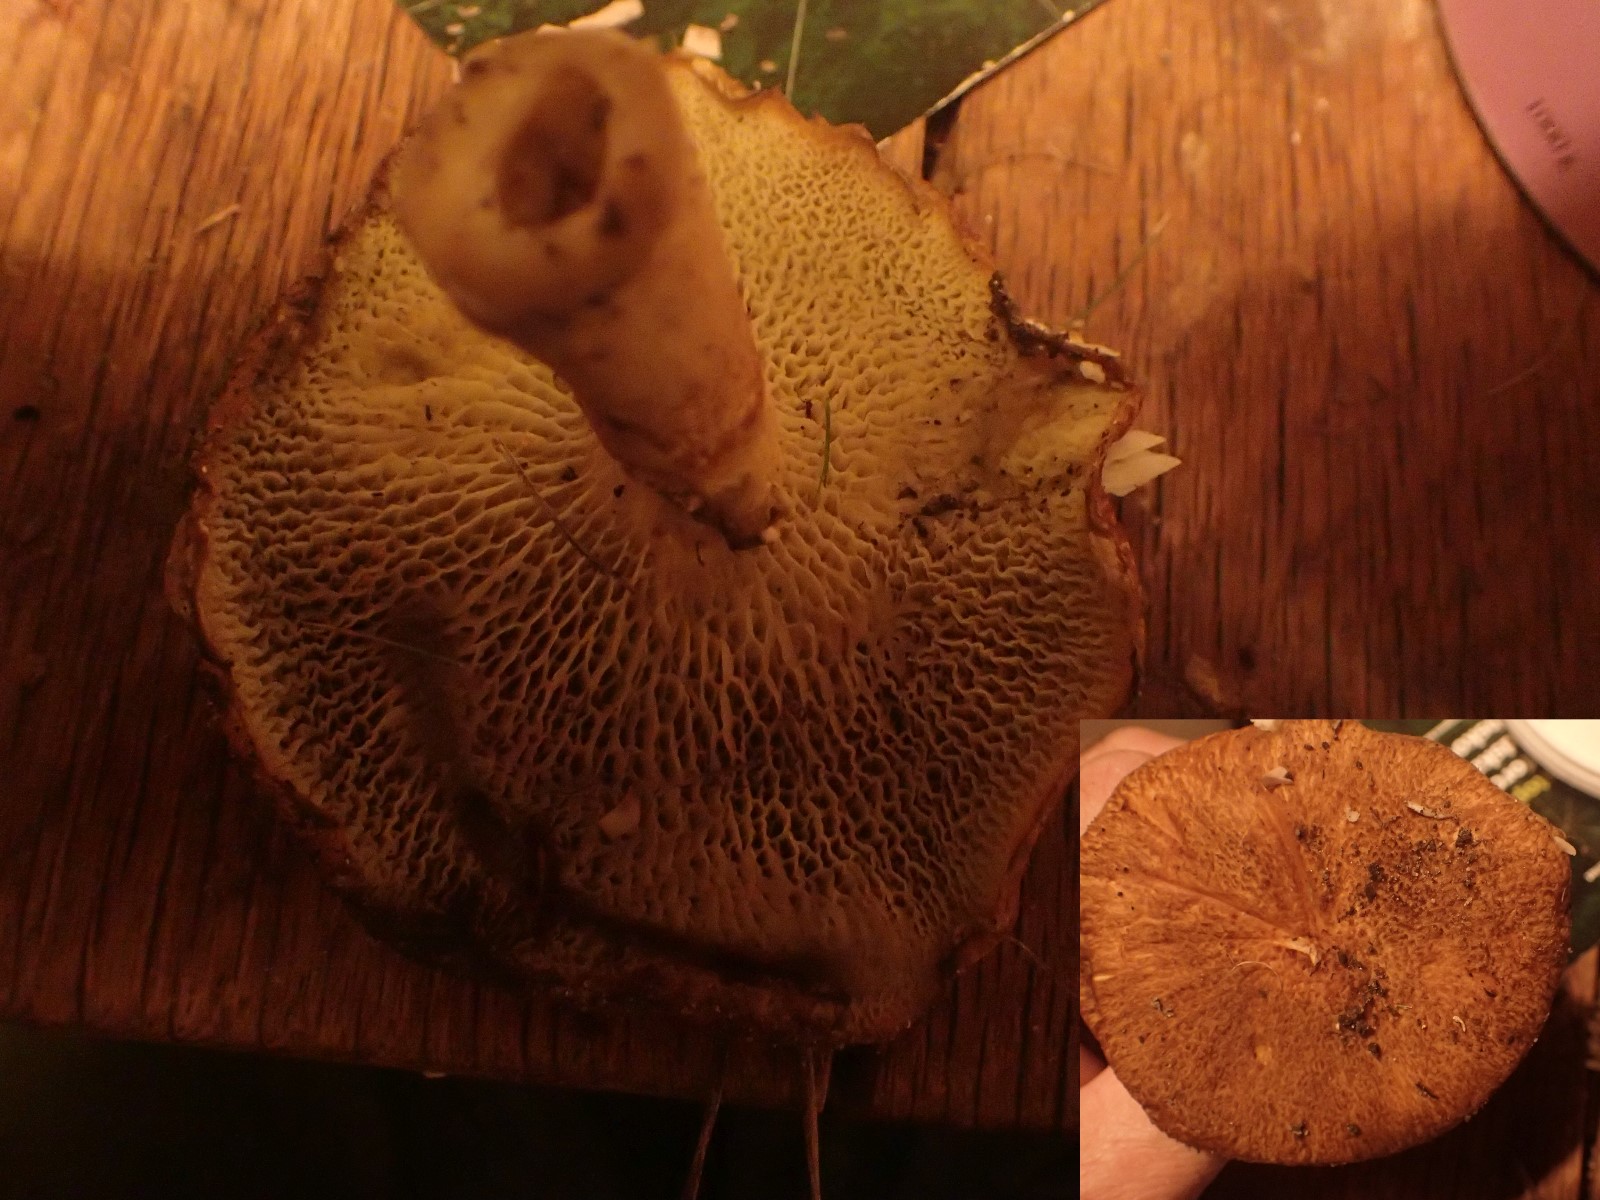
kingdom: Fungi
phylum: Basidiomycota
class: Agaricomycetes
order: Boletales
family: Suillaceae
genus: Suillus
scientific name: Suillus cavipes
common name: hulstokket slimrørhat
